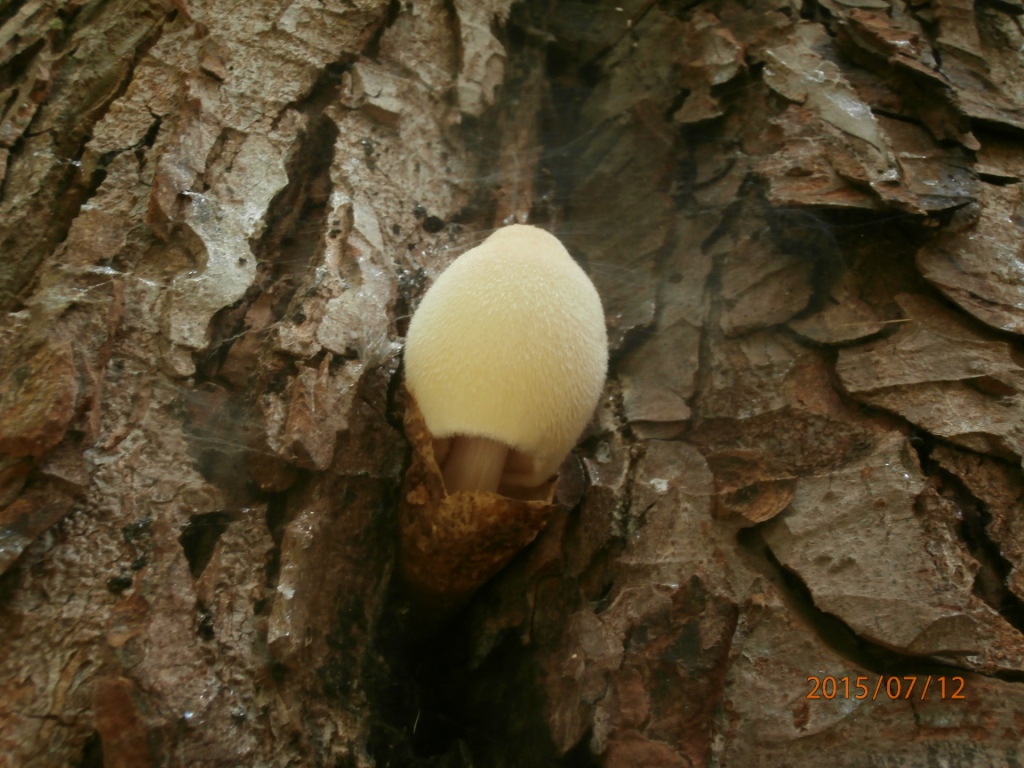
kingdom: Fungi
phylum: Basidiomycota
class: Agaricomycetes
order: Agaricales
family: Pluteaceae
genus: Volvariella
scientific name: Volvariella bombycina
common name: silkehåret posesvamp
